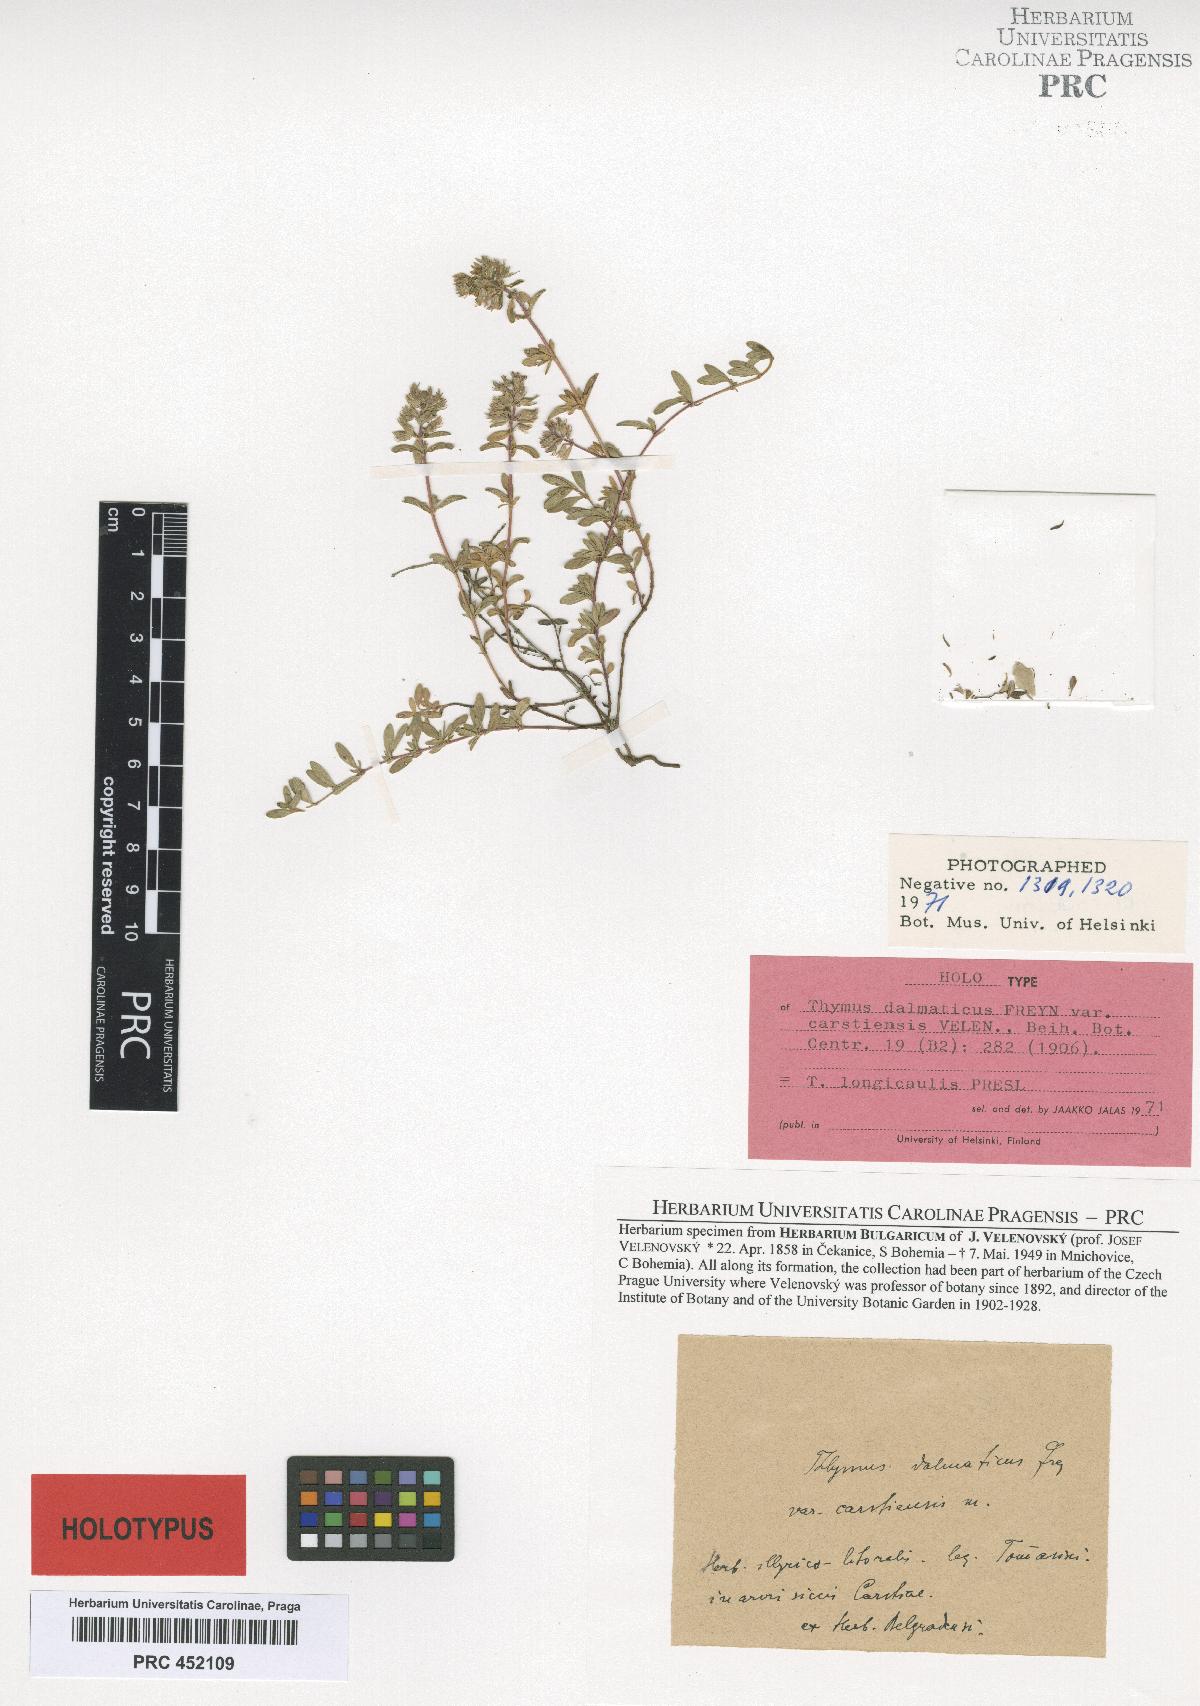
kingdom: Plantae
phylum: Tracheophyta
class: Magnoliopsida
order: Lamiales
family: Lamiaceae
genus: Thymus
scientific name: Thymus longicaulis
